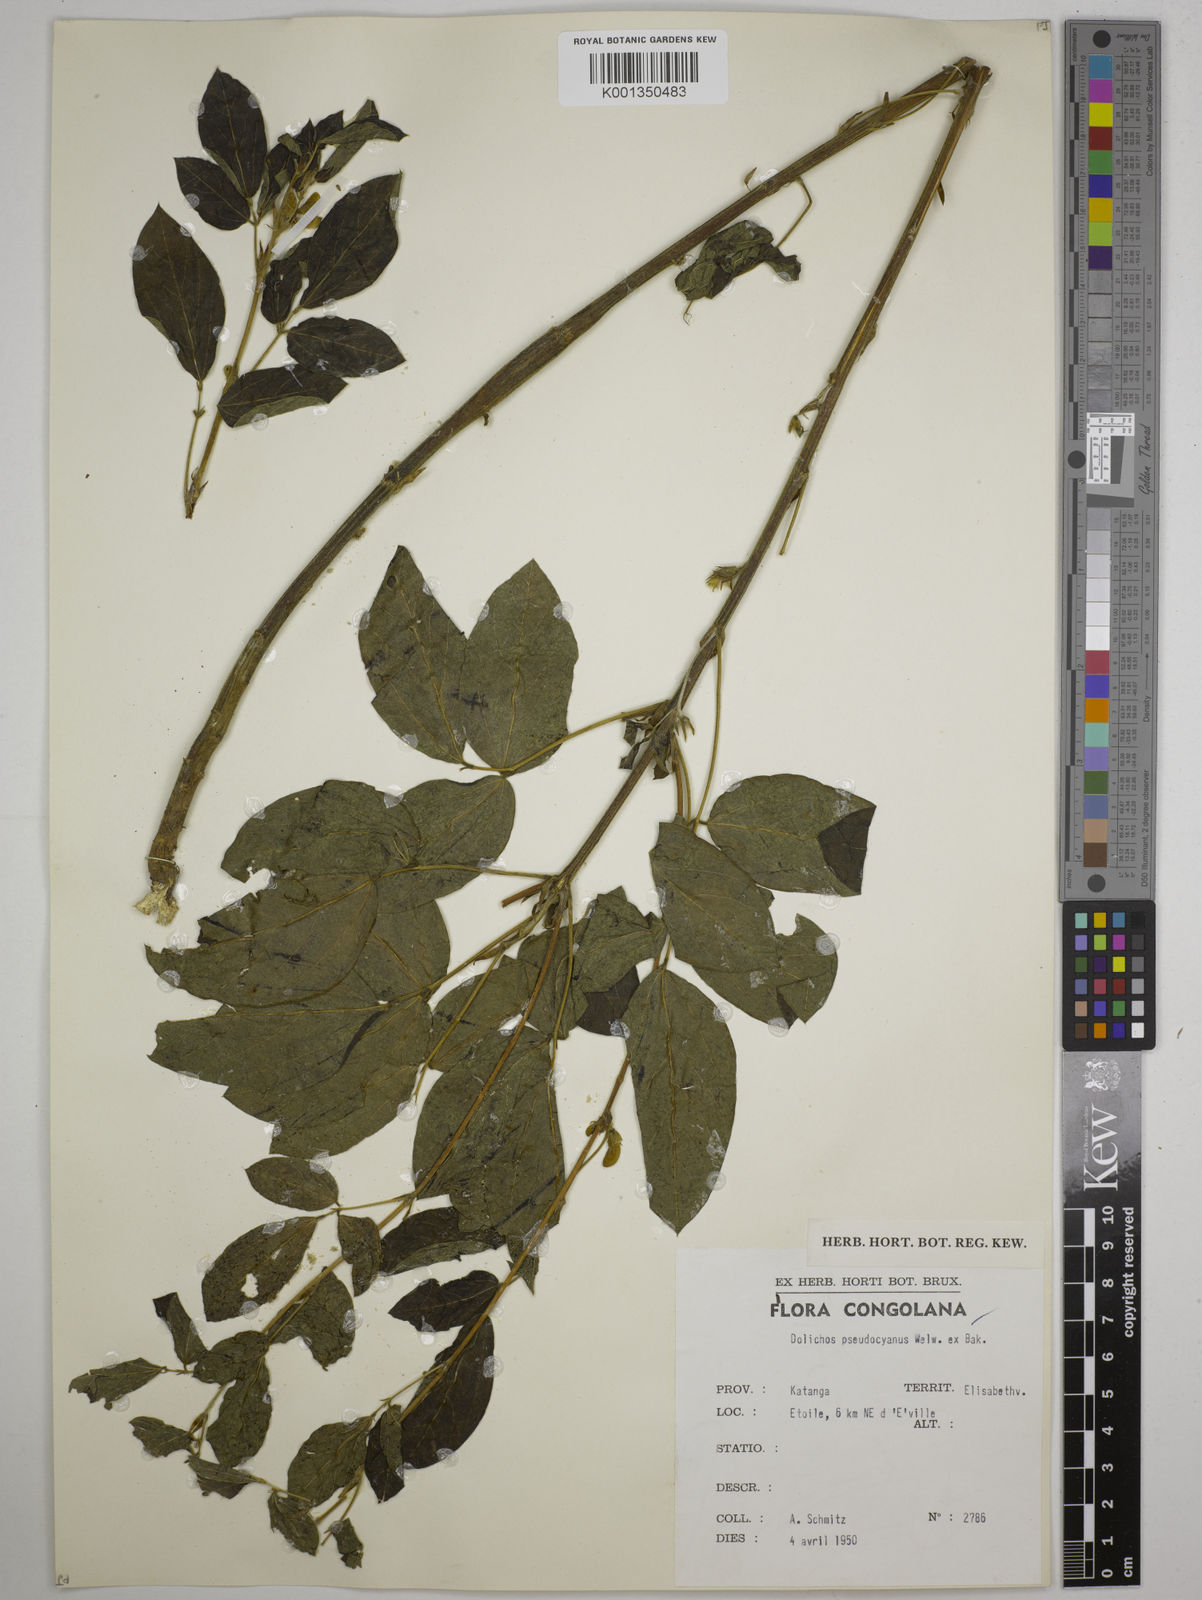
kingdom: Plantae
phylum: Tracheophyta
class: Magnoliopsida
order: Fabales
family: Fabaceae
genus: Dolichos
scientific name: Dolichos pseudocajanus
